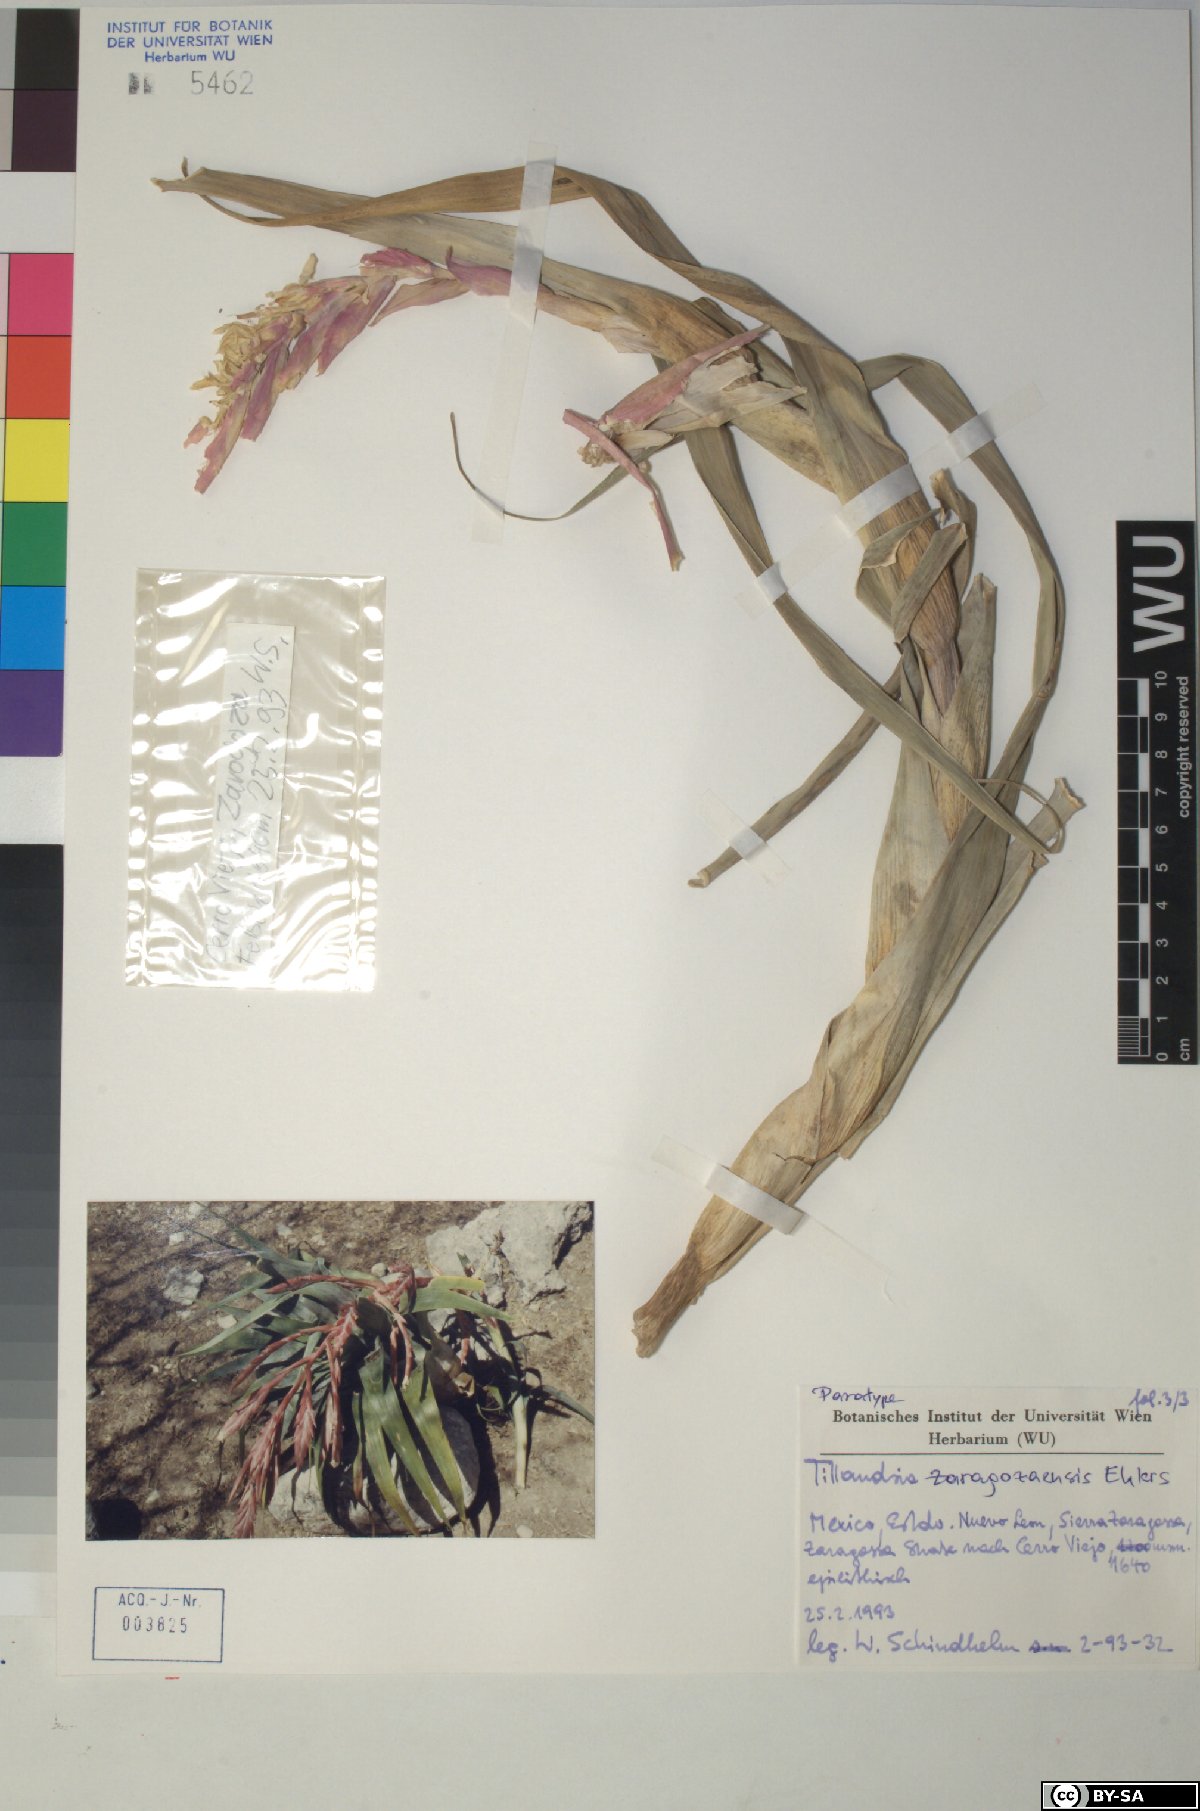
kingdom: Plantae
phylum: Tracheophyta
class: Liliopsida
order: Poales
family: Bromeliaceae
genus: Tillandsia
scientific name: Tillandsia zaragozaensis
